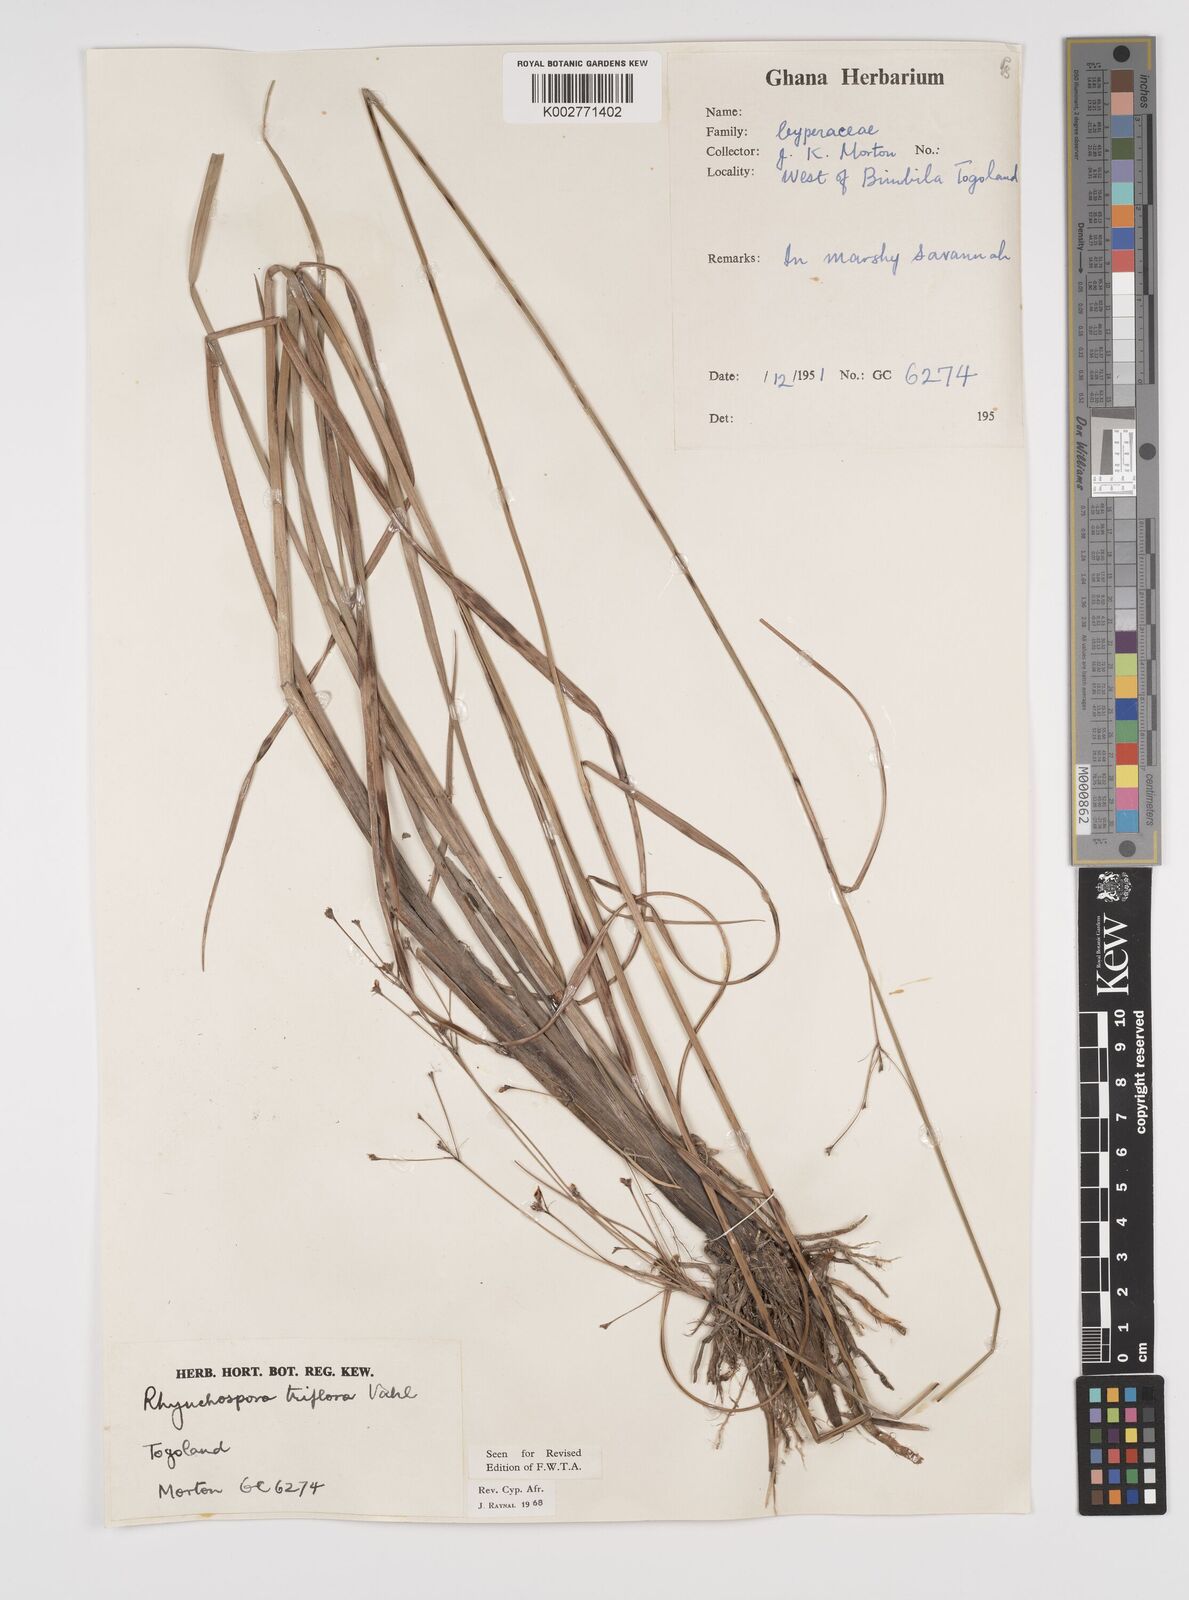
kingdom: Plantae
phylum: Tracheophyta
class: Liliopsida
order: Poales
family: Cyperaceae
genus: Rhynchospora
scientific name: Rhynchospora triflora
